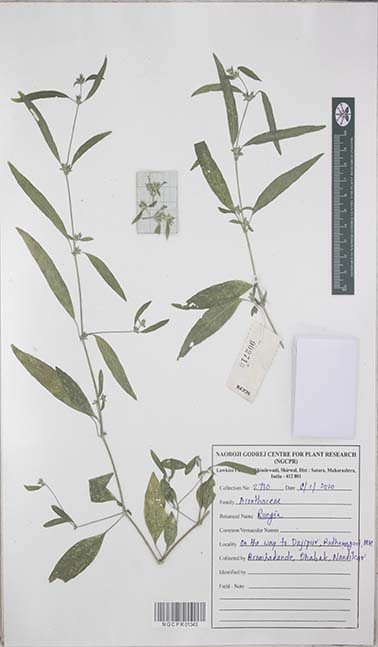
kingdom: Plantae
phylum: Tracheophyta
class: Magnoliopsida
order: Lamiales
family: Acanthaceae
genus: Rungia
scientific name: Rungia
